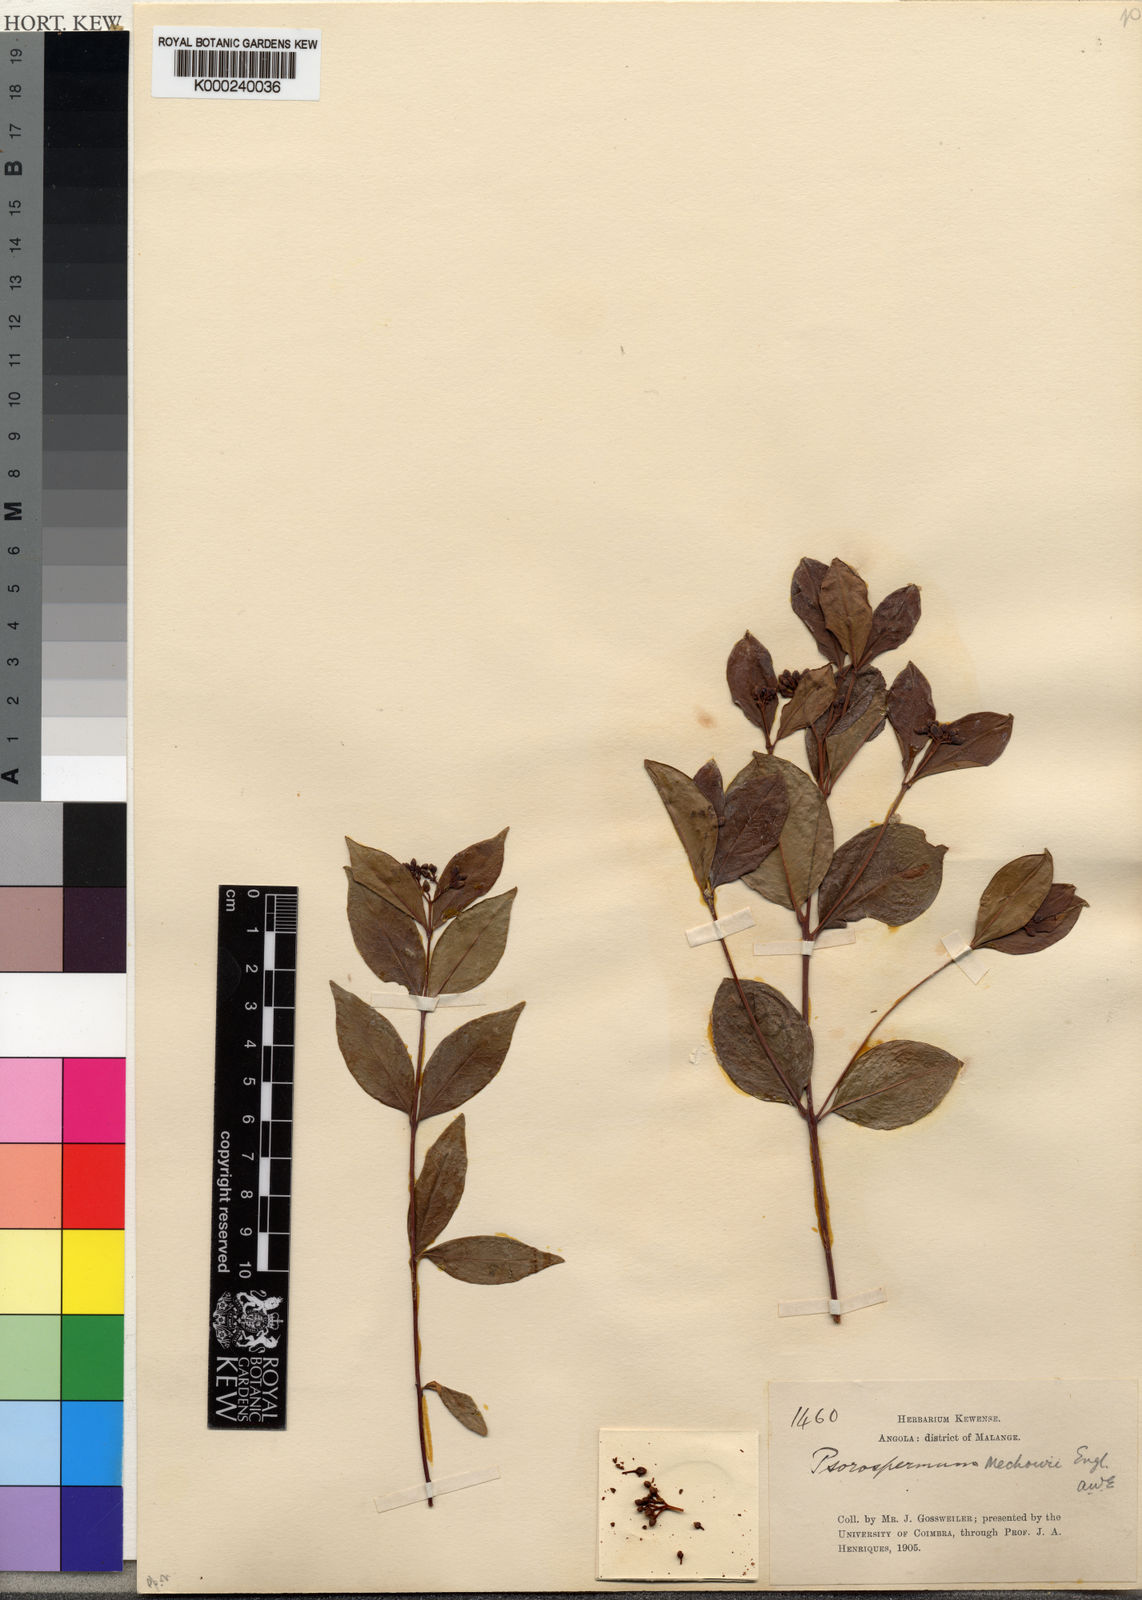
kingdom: Plantae
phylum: Tracheophyta
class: Magnoliopsida
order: Malpighiales
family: Hypericaceae
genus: Psorospermum
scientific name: Psorospermum mechowii
